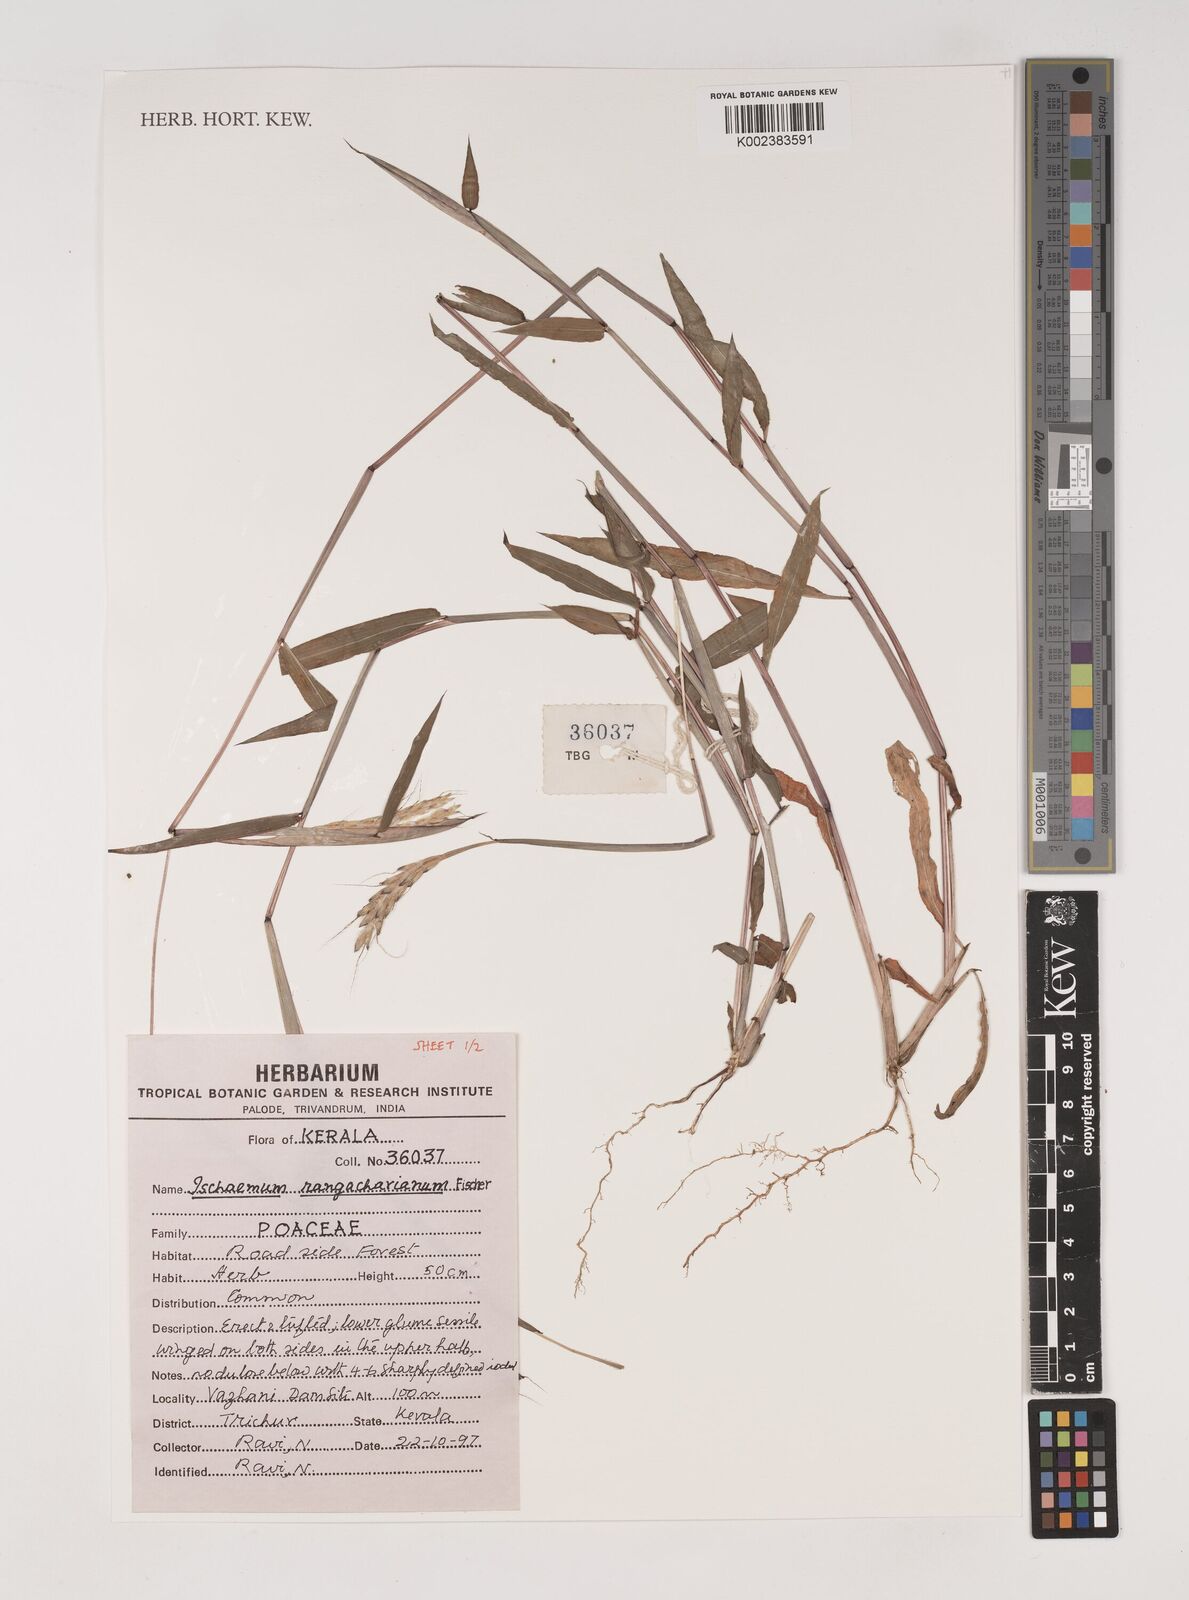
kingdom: Plantae
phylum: Tracheophyta
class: Liliopsida
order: Poales
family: Poaceae
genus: Ischaemum
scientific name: Ischaemum rangacharianum
